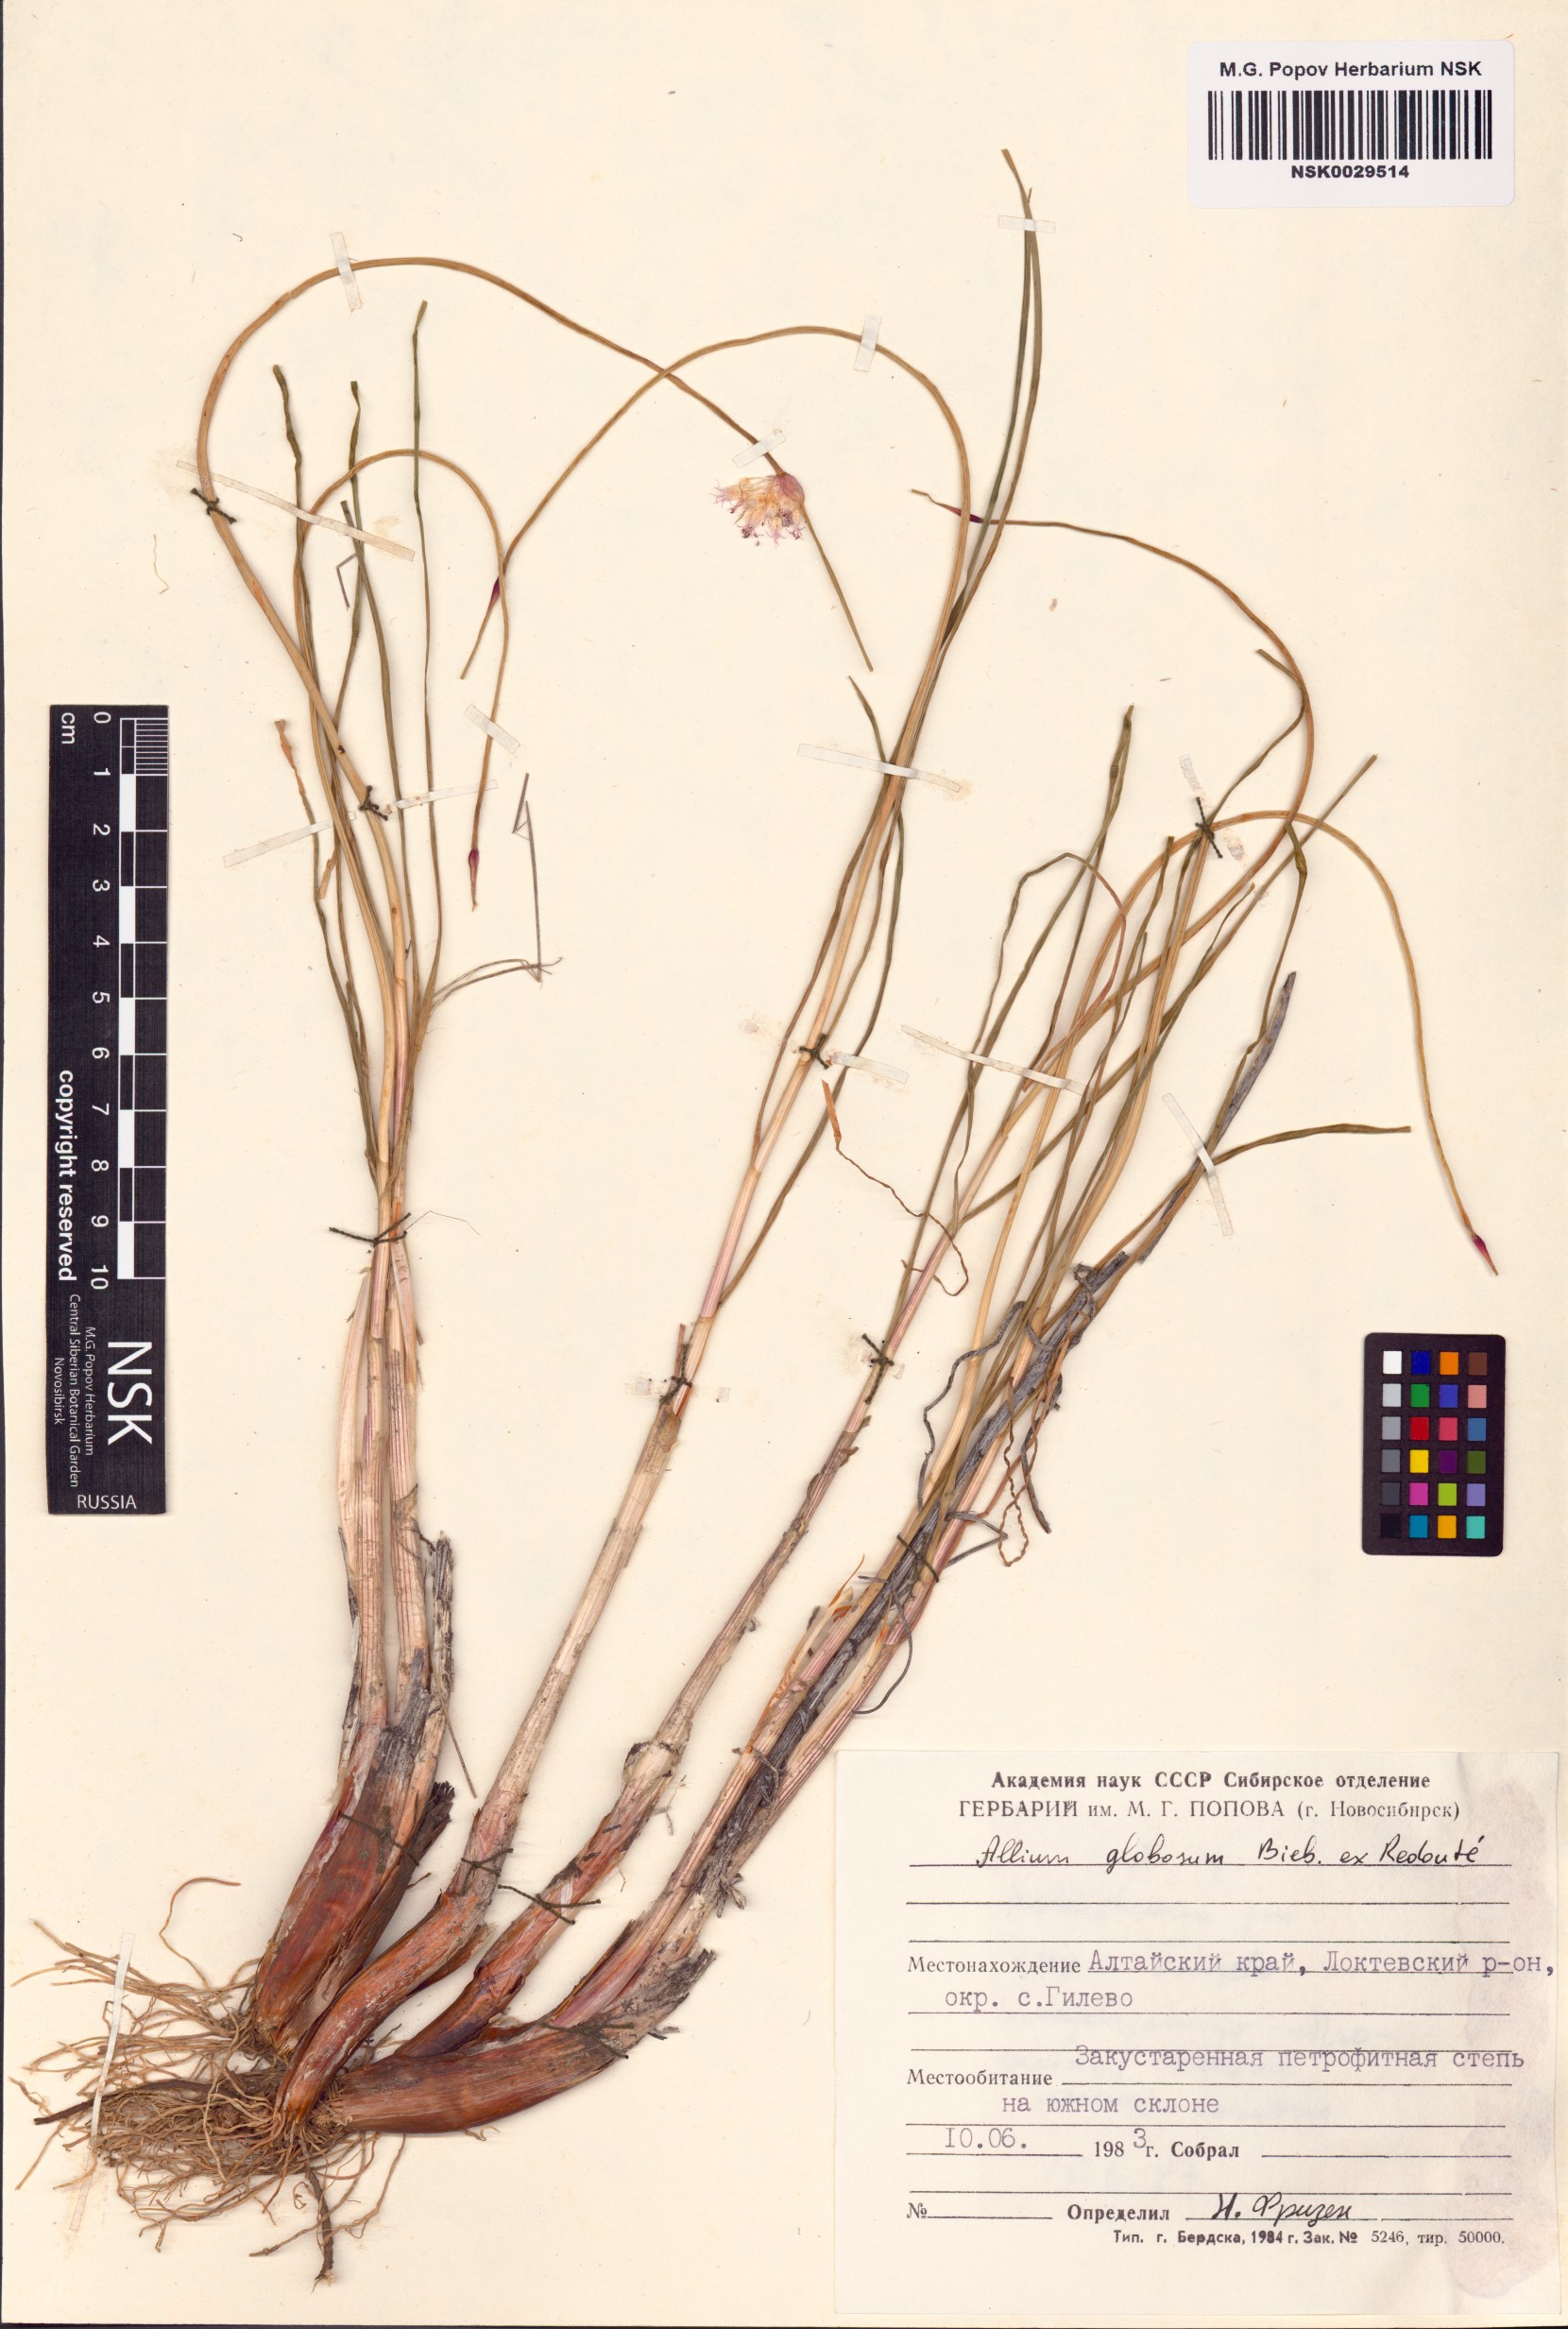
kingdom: Plantae
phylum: Tracheophyta
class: Liliopsida
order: Asparagales
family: Amaryllidaceae
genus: Allium
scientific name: Allium saxatile
